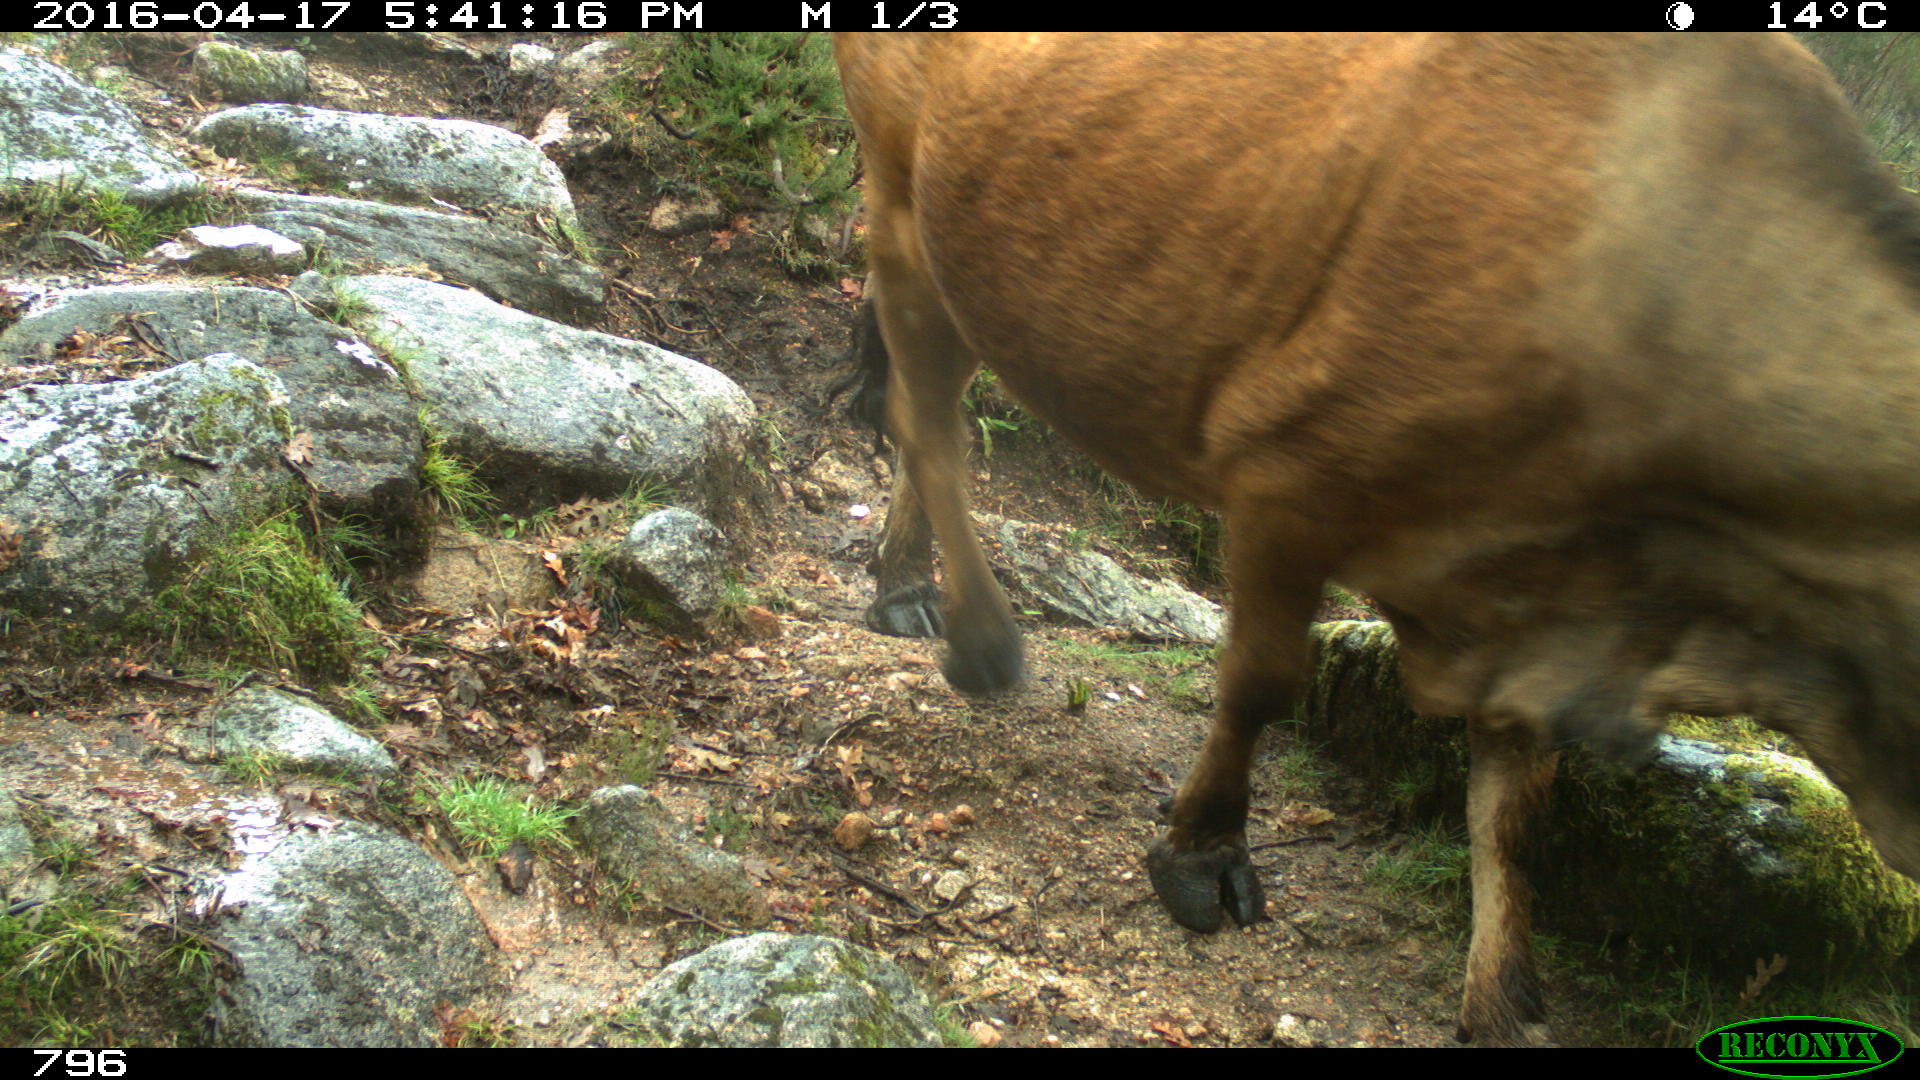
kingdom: Animalia
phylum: Chordata
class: Mammalia
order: Artiodactyla
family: Bovidae
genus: Bos
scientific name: Bos taurus
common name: Domesticated cattle
